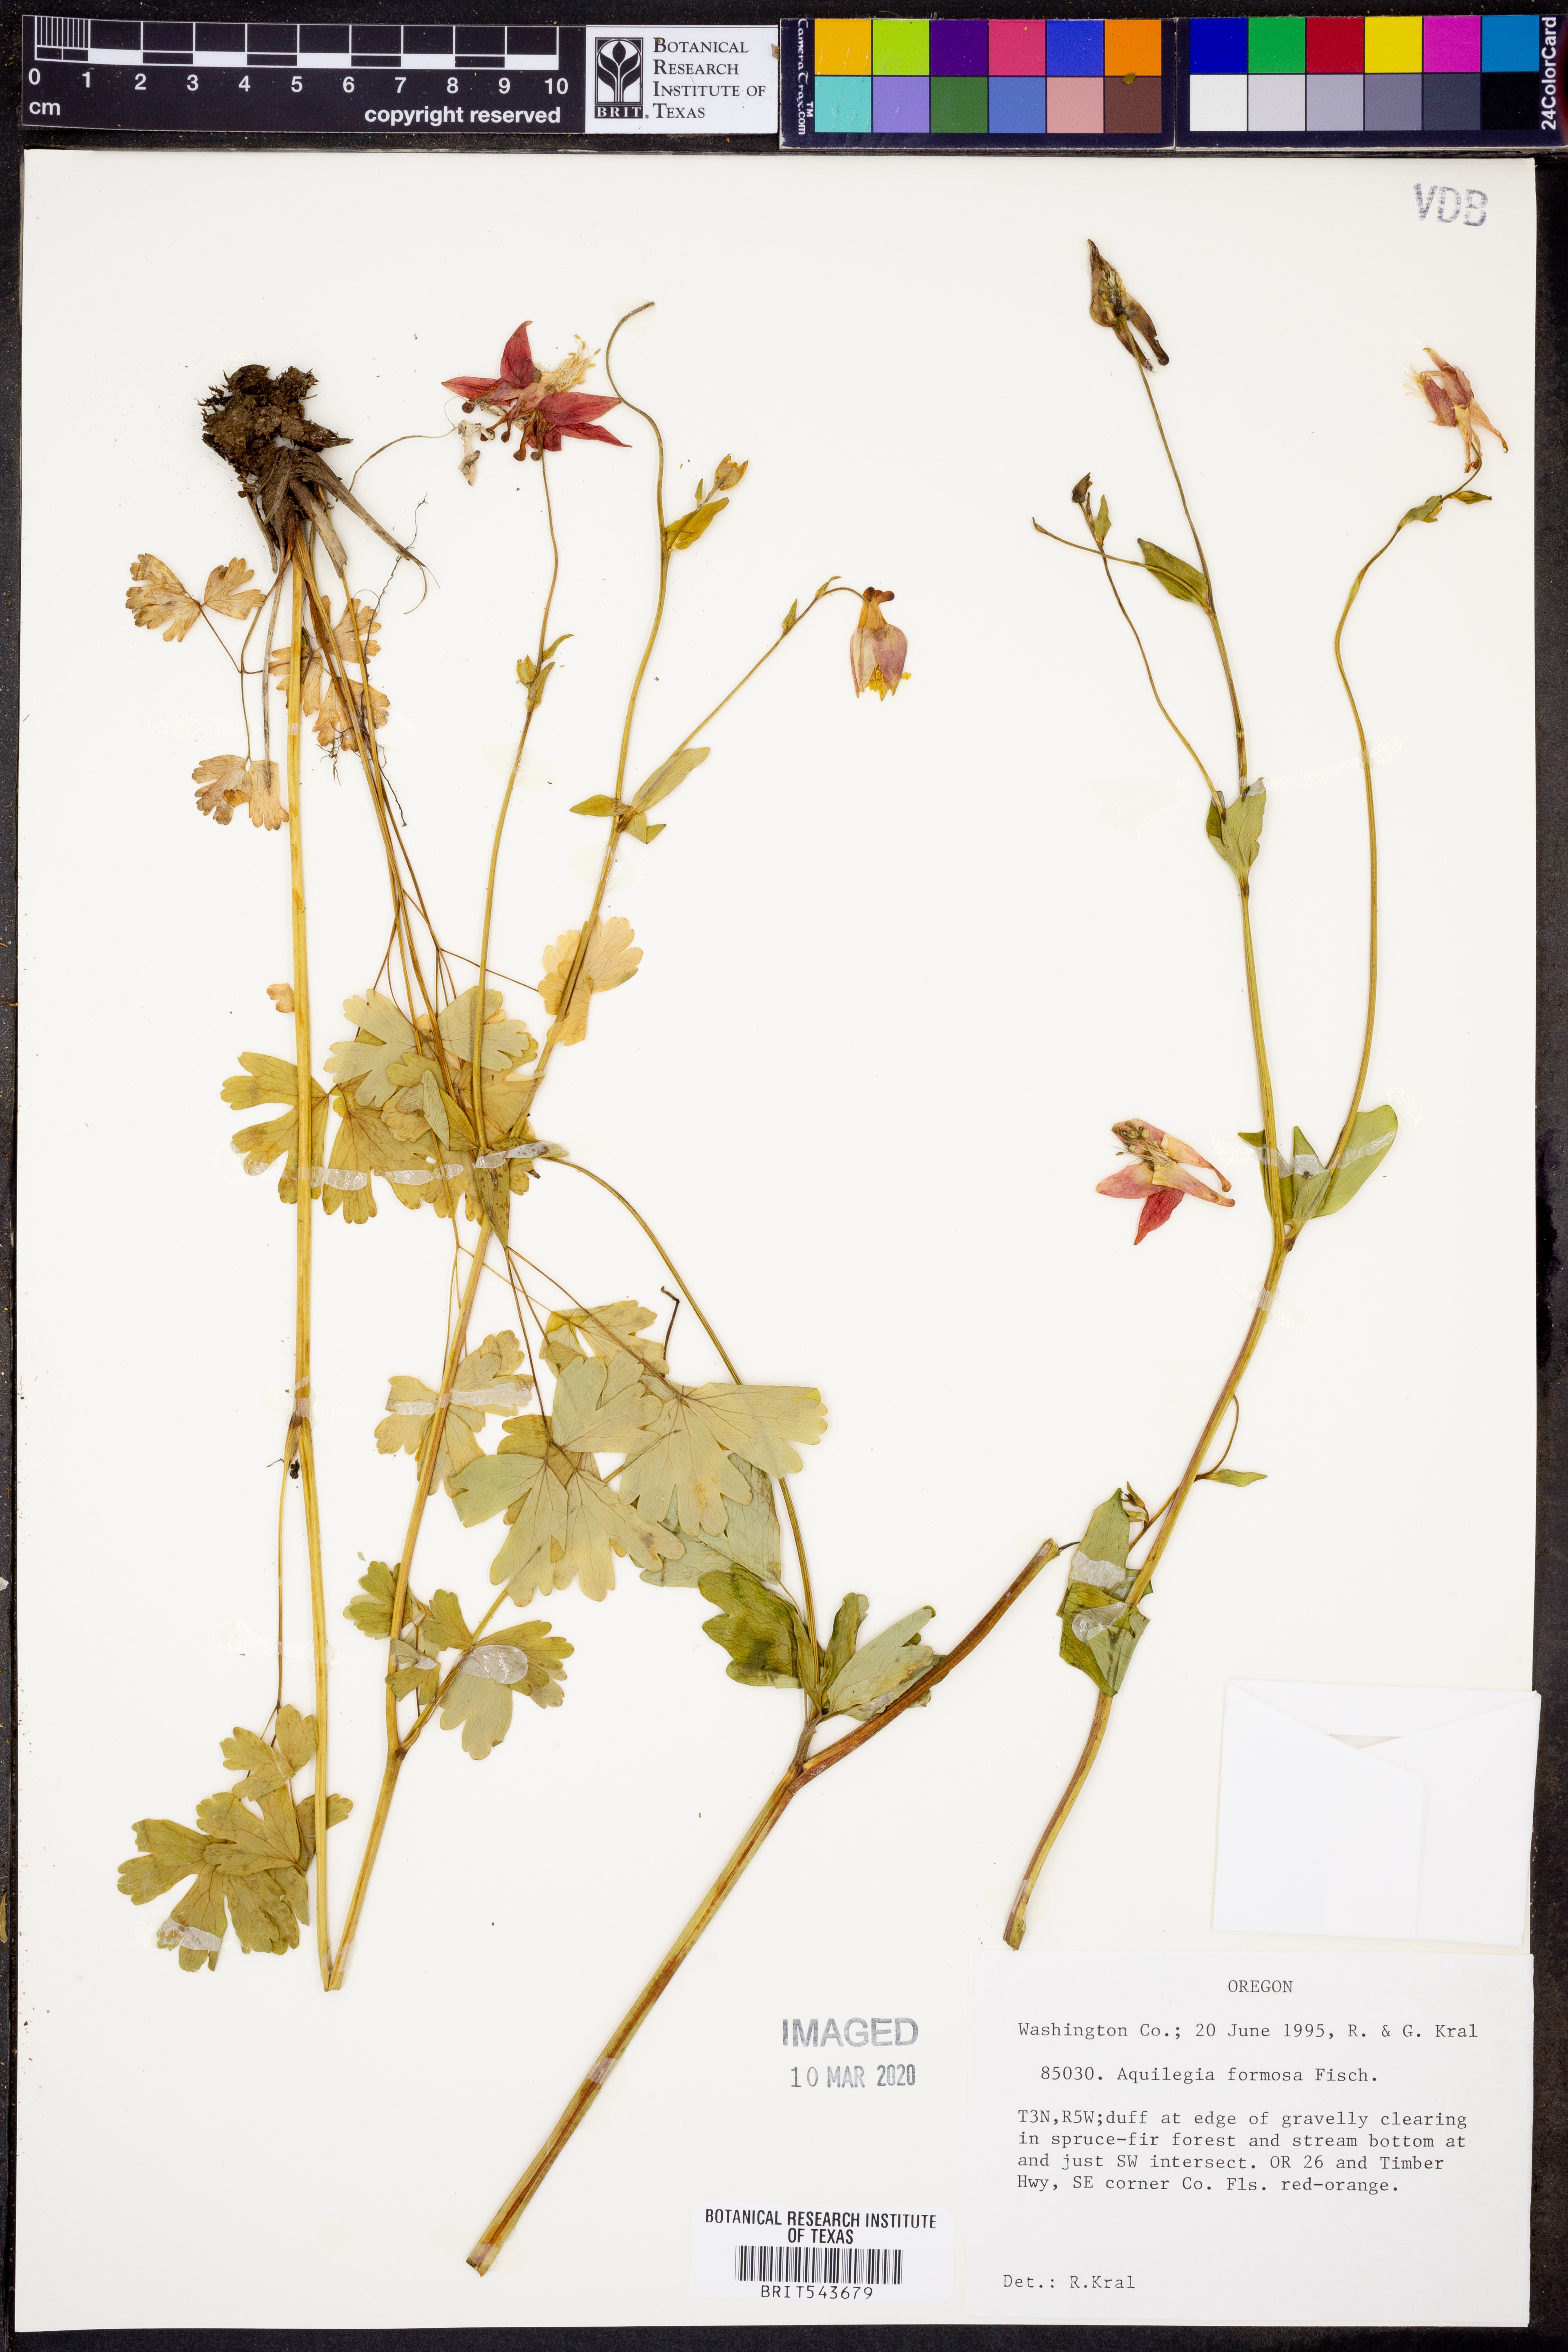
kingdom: Plantae
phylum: Tracheophyta
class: Magnoliopsida
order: Ranunculales
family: Ranunculaceae
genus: Aquilegia
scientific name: Aquilegia formosa
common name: Sitka columbine
